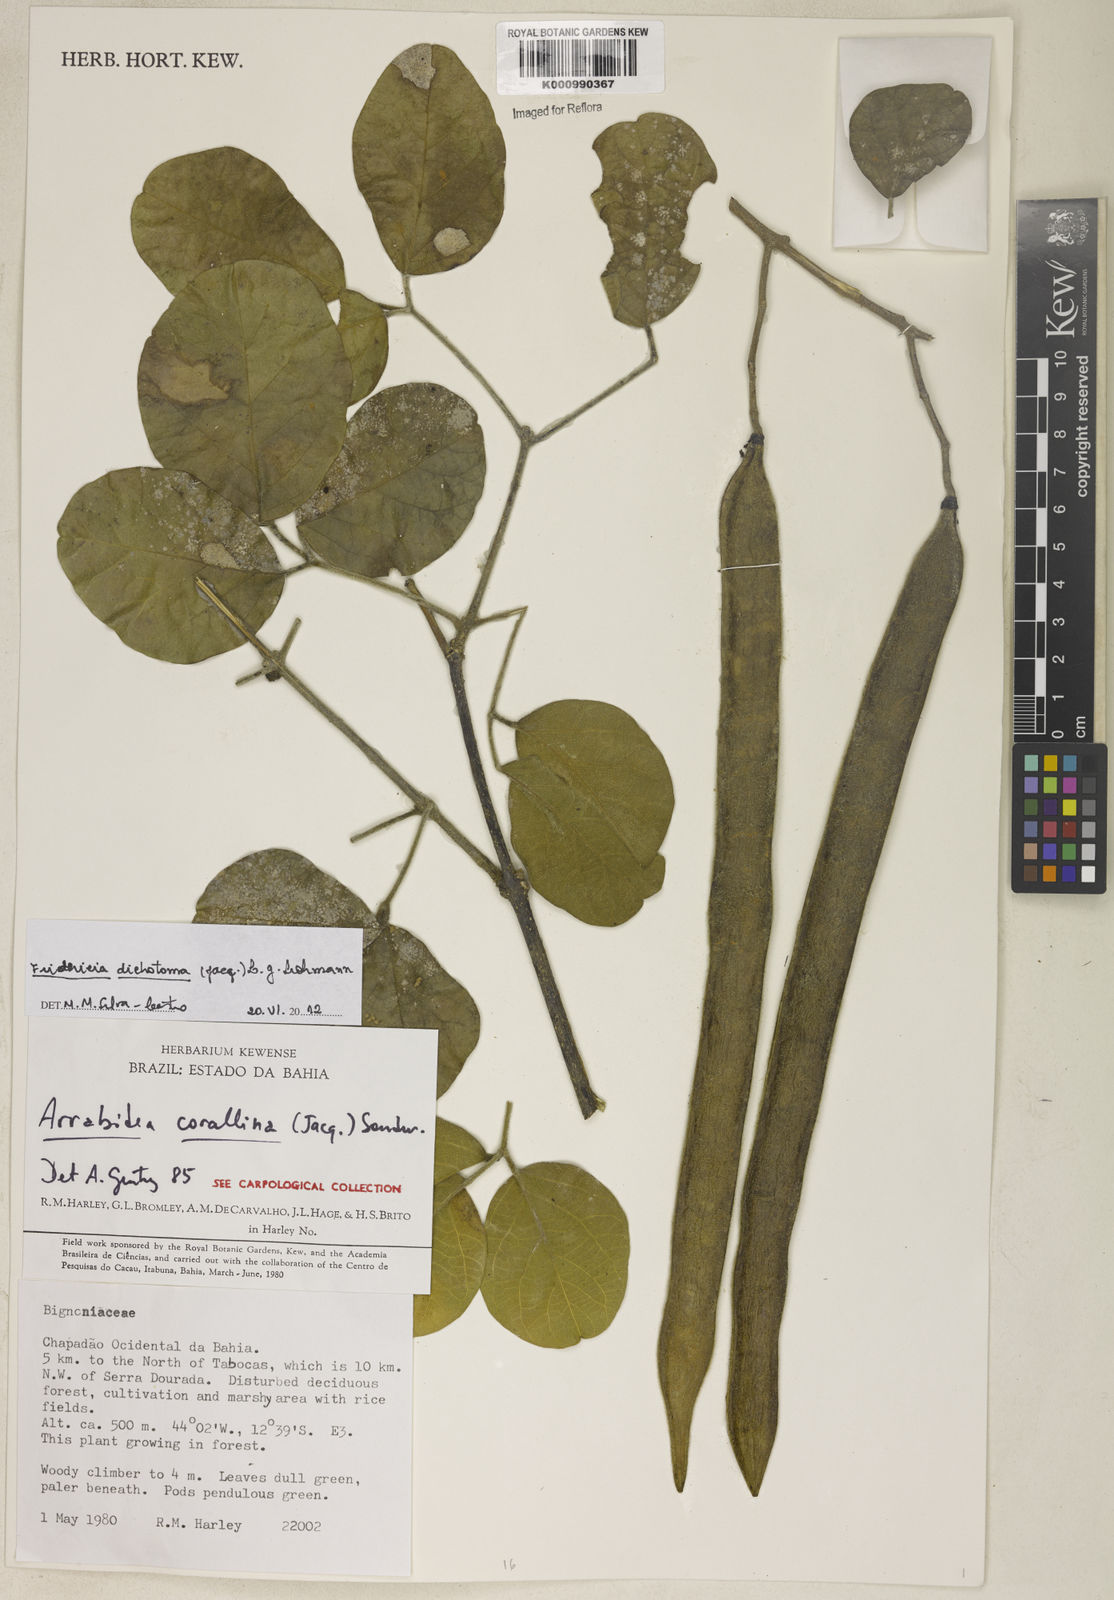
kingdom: Plantae
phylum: Tracheophyta
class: Magnoliopsida
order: Lamiales
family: Bignoniaceae
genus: Tanaecium
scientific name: Tanaecium dichotomum
